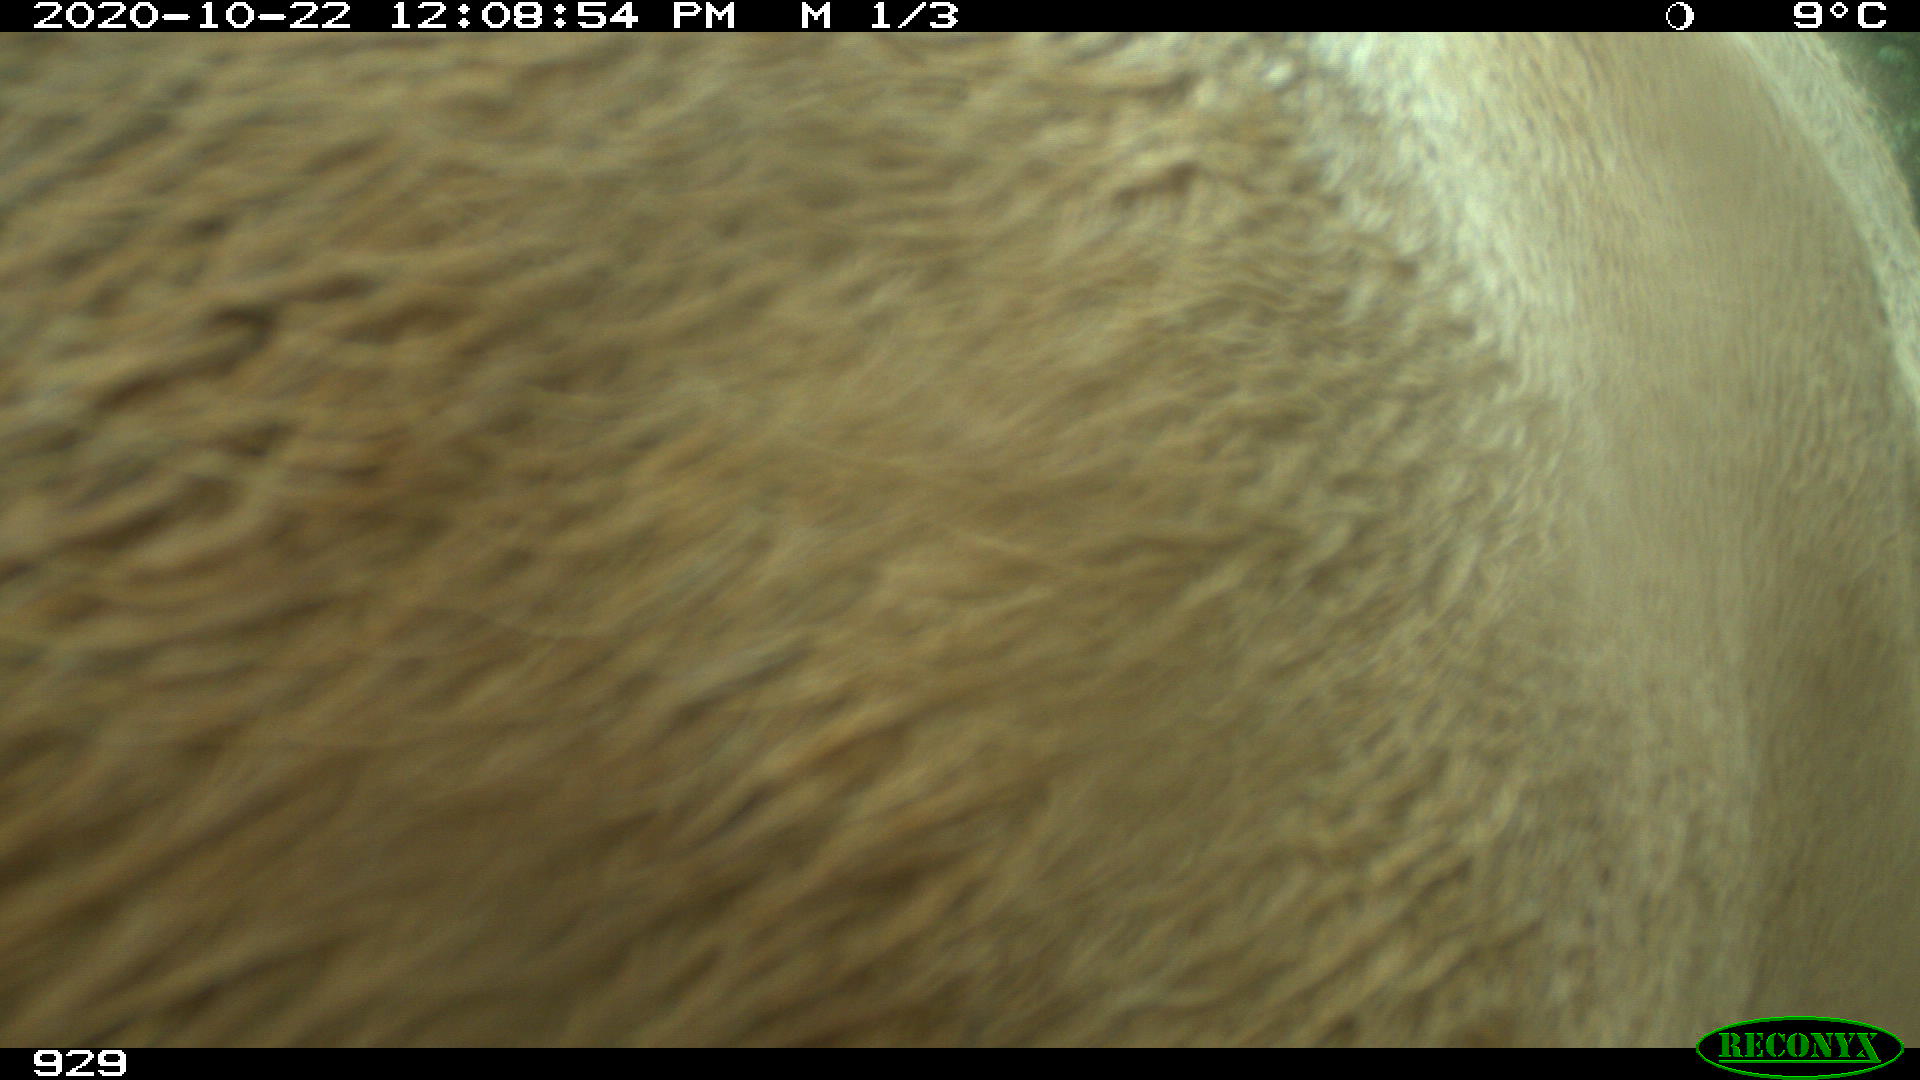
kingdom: Animalia
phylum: Chordata
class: Mammalia
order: Artiodactyla
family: Bovidae
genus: Bos
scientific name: Bos taurus
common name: Domesticated cattle
